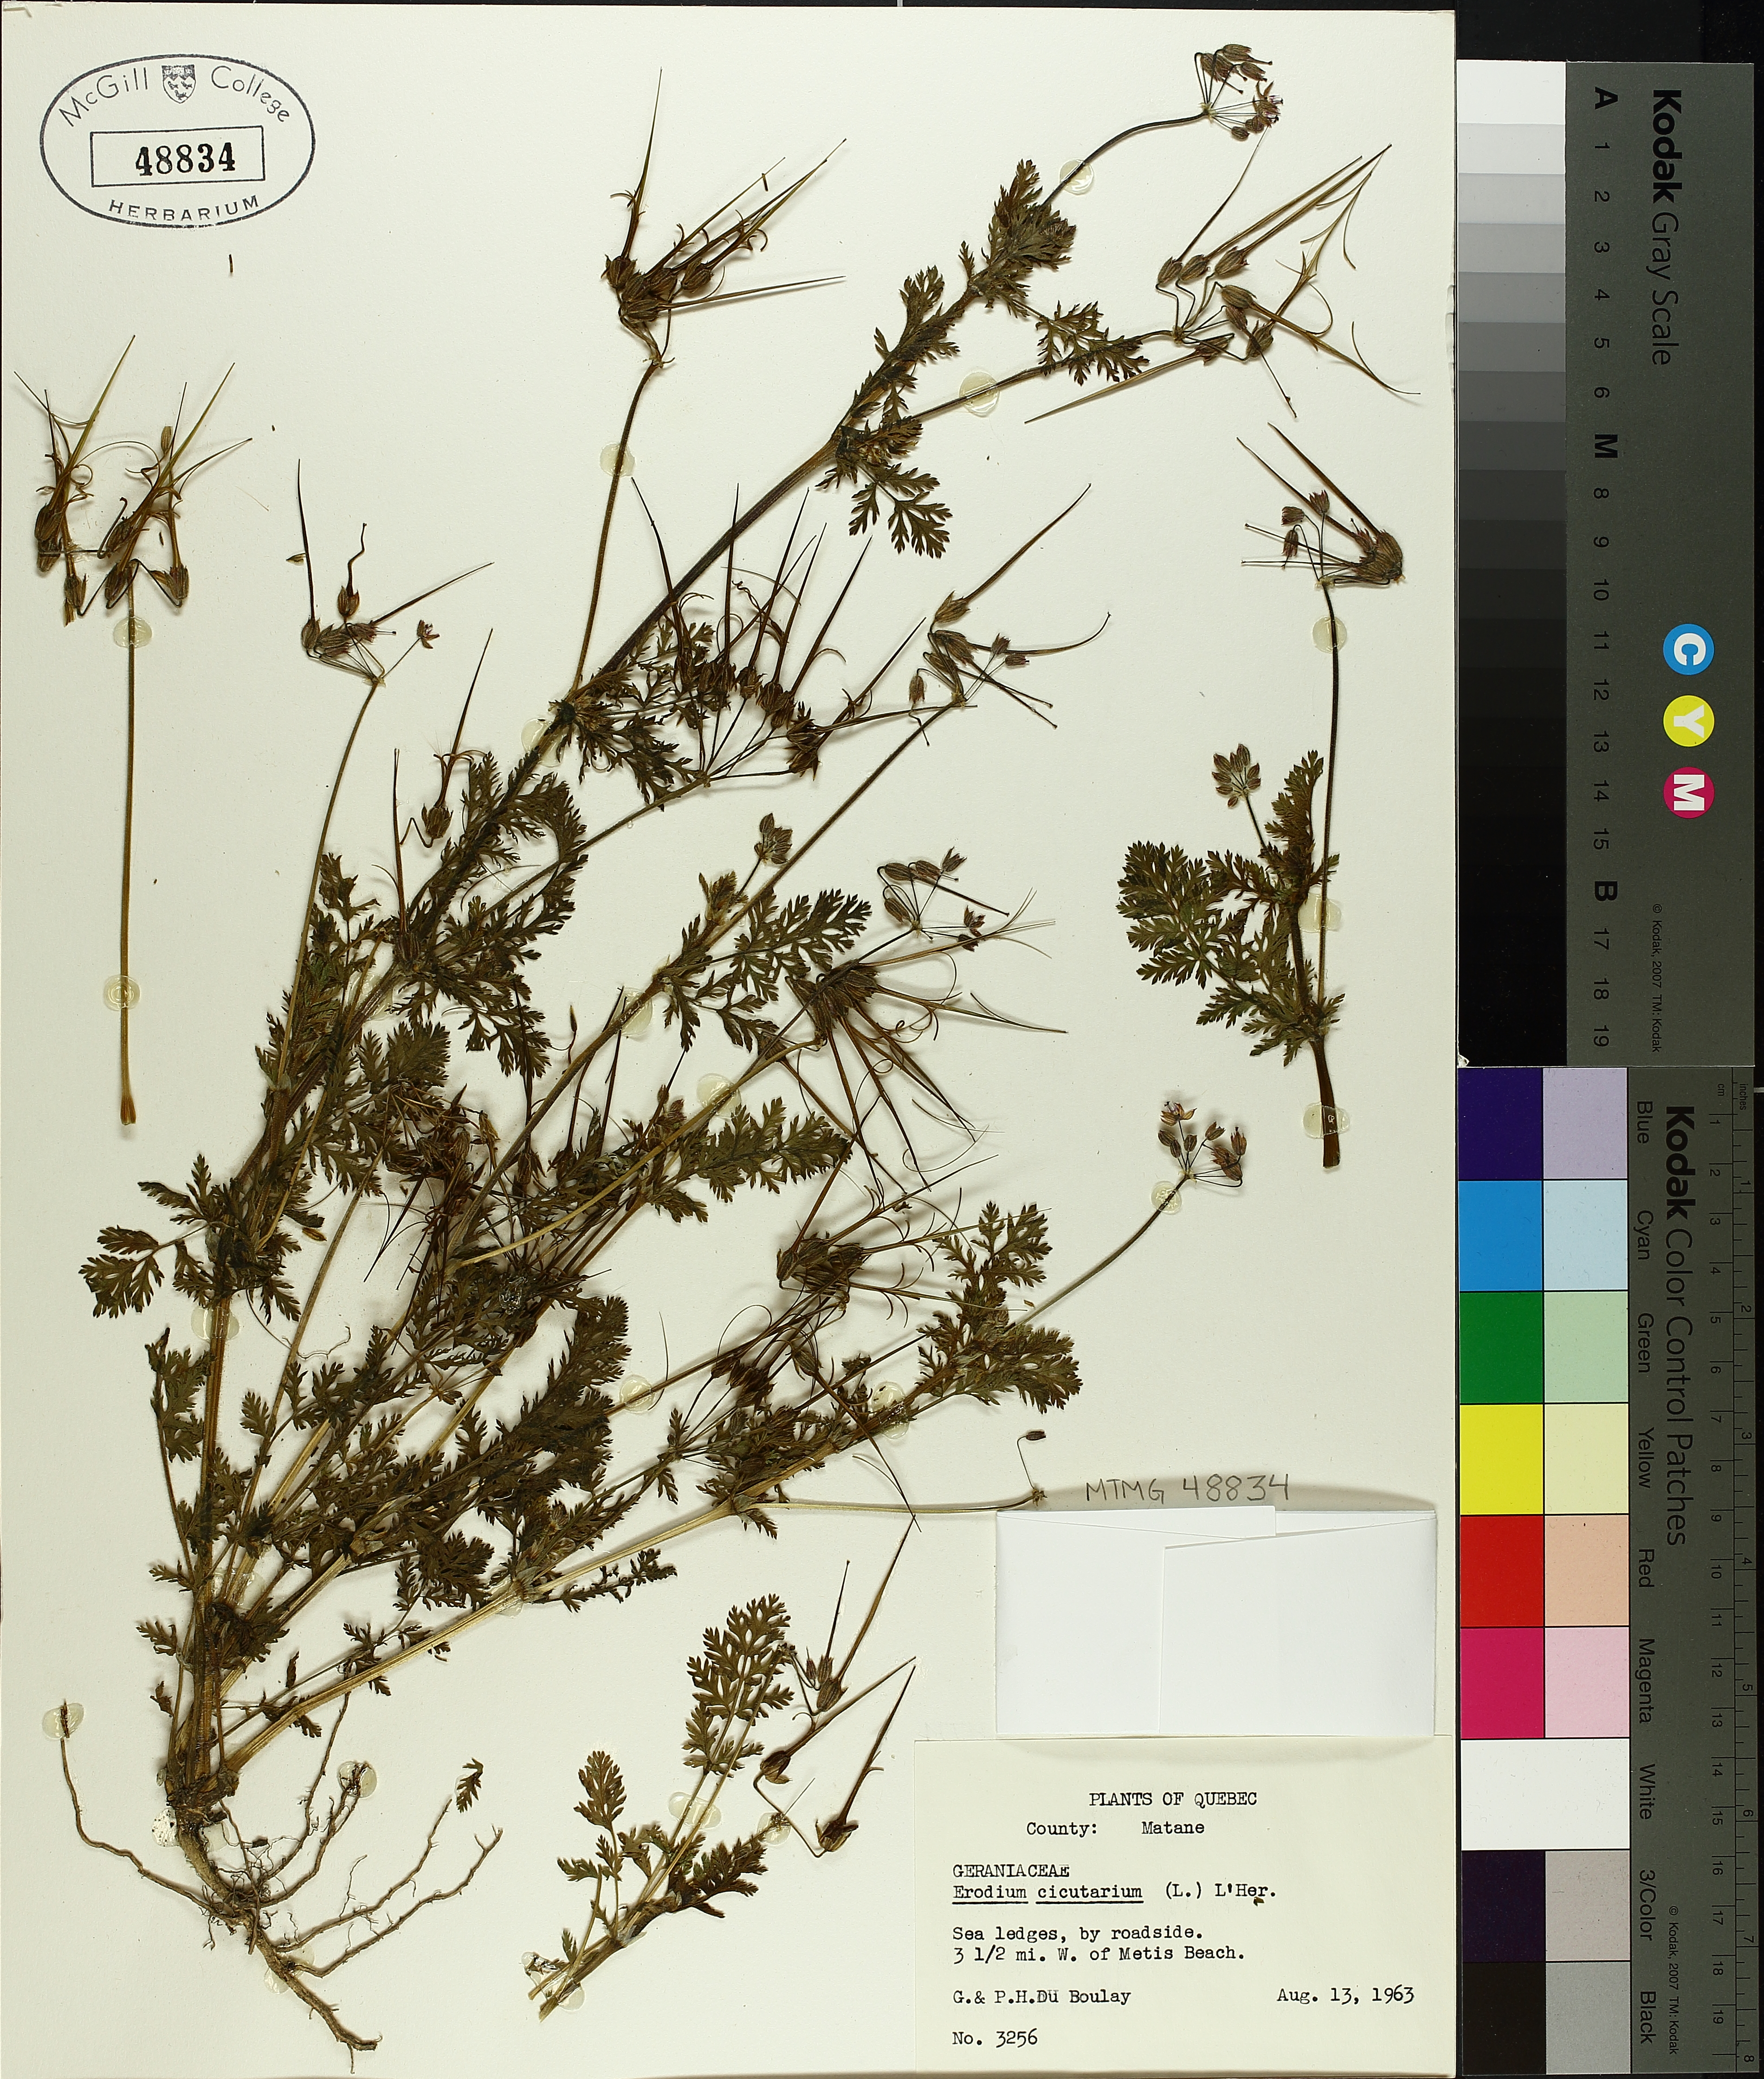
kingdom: Plantae
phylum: Tracheophyta
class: Magnoliopsida
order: Geraniales
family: Geraniaceae
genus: Erodium
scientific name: Erodium cicutarium
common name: Common stork's-bill
